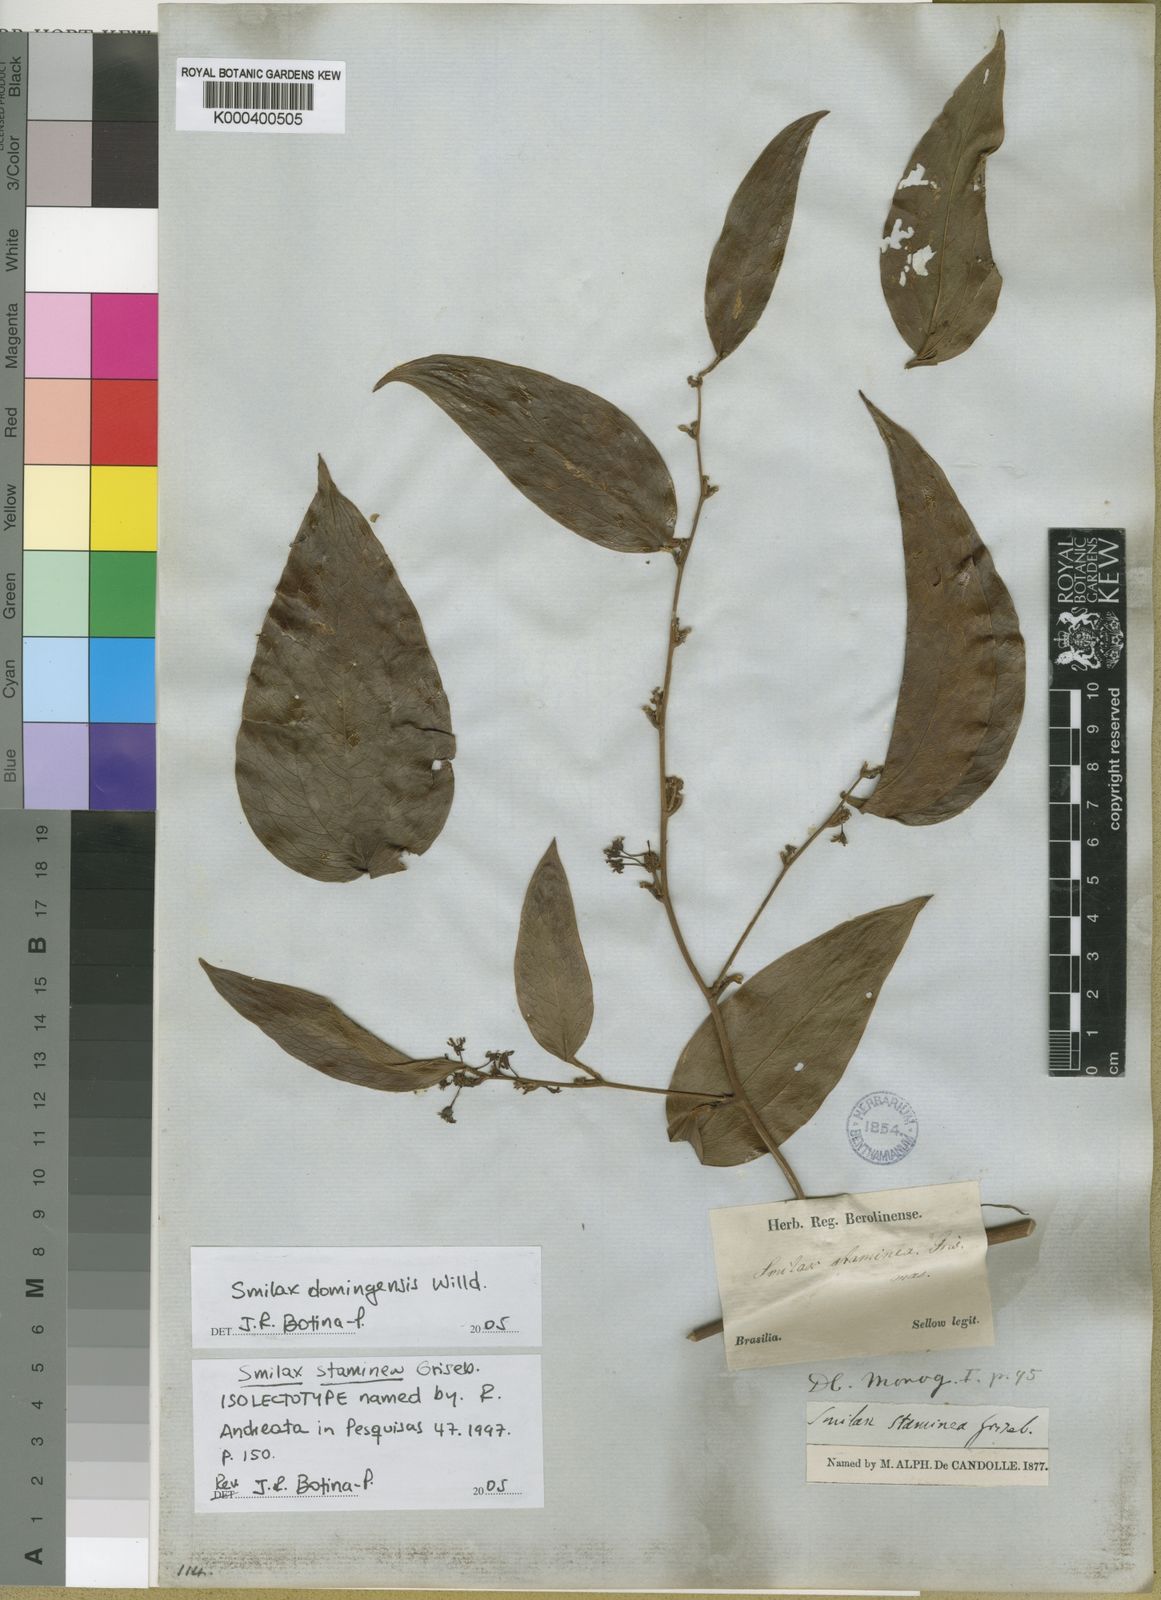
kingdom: Plantae
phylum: Tracheophyta
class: Liliopsida
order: Liliales
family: Smilacaceae
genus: Smilax
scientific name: Smilax domingensis
